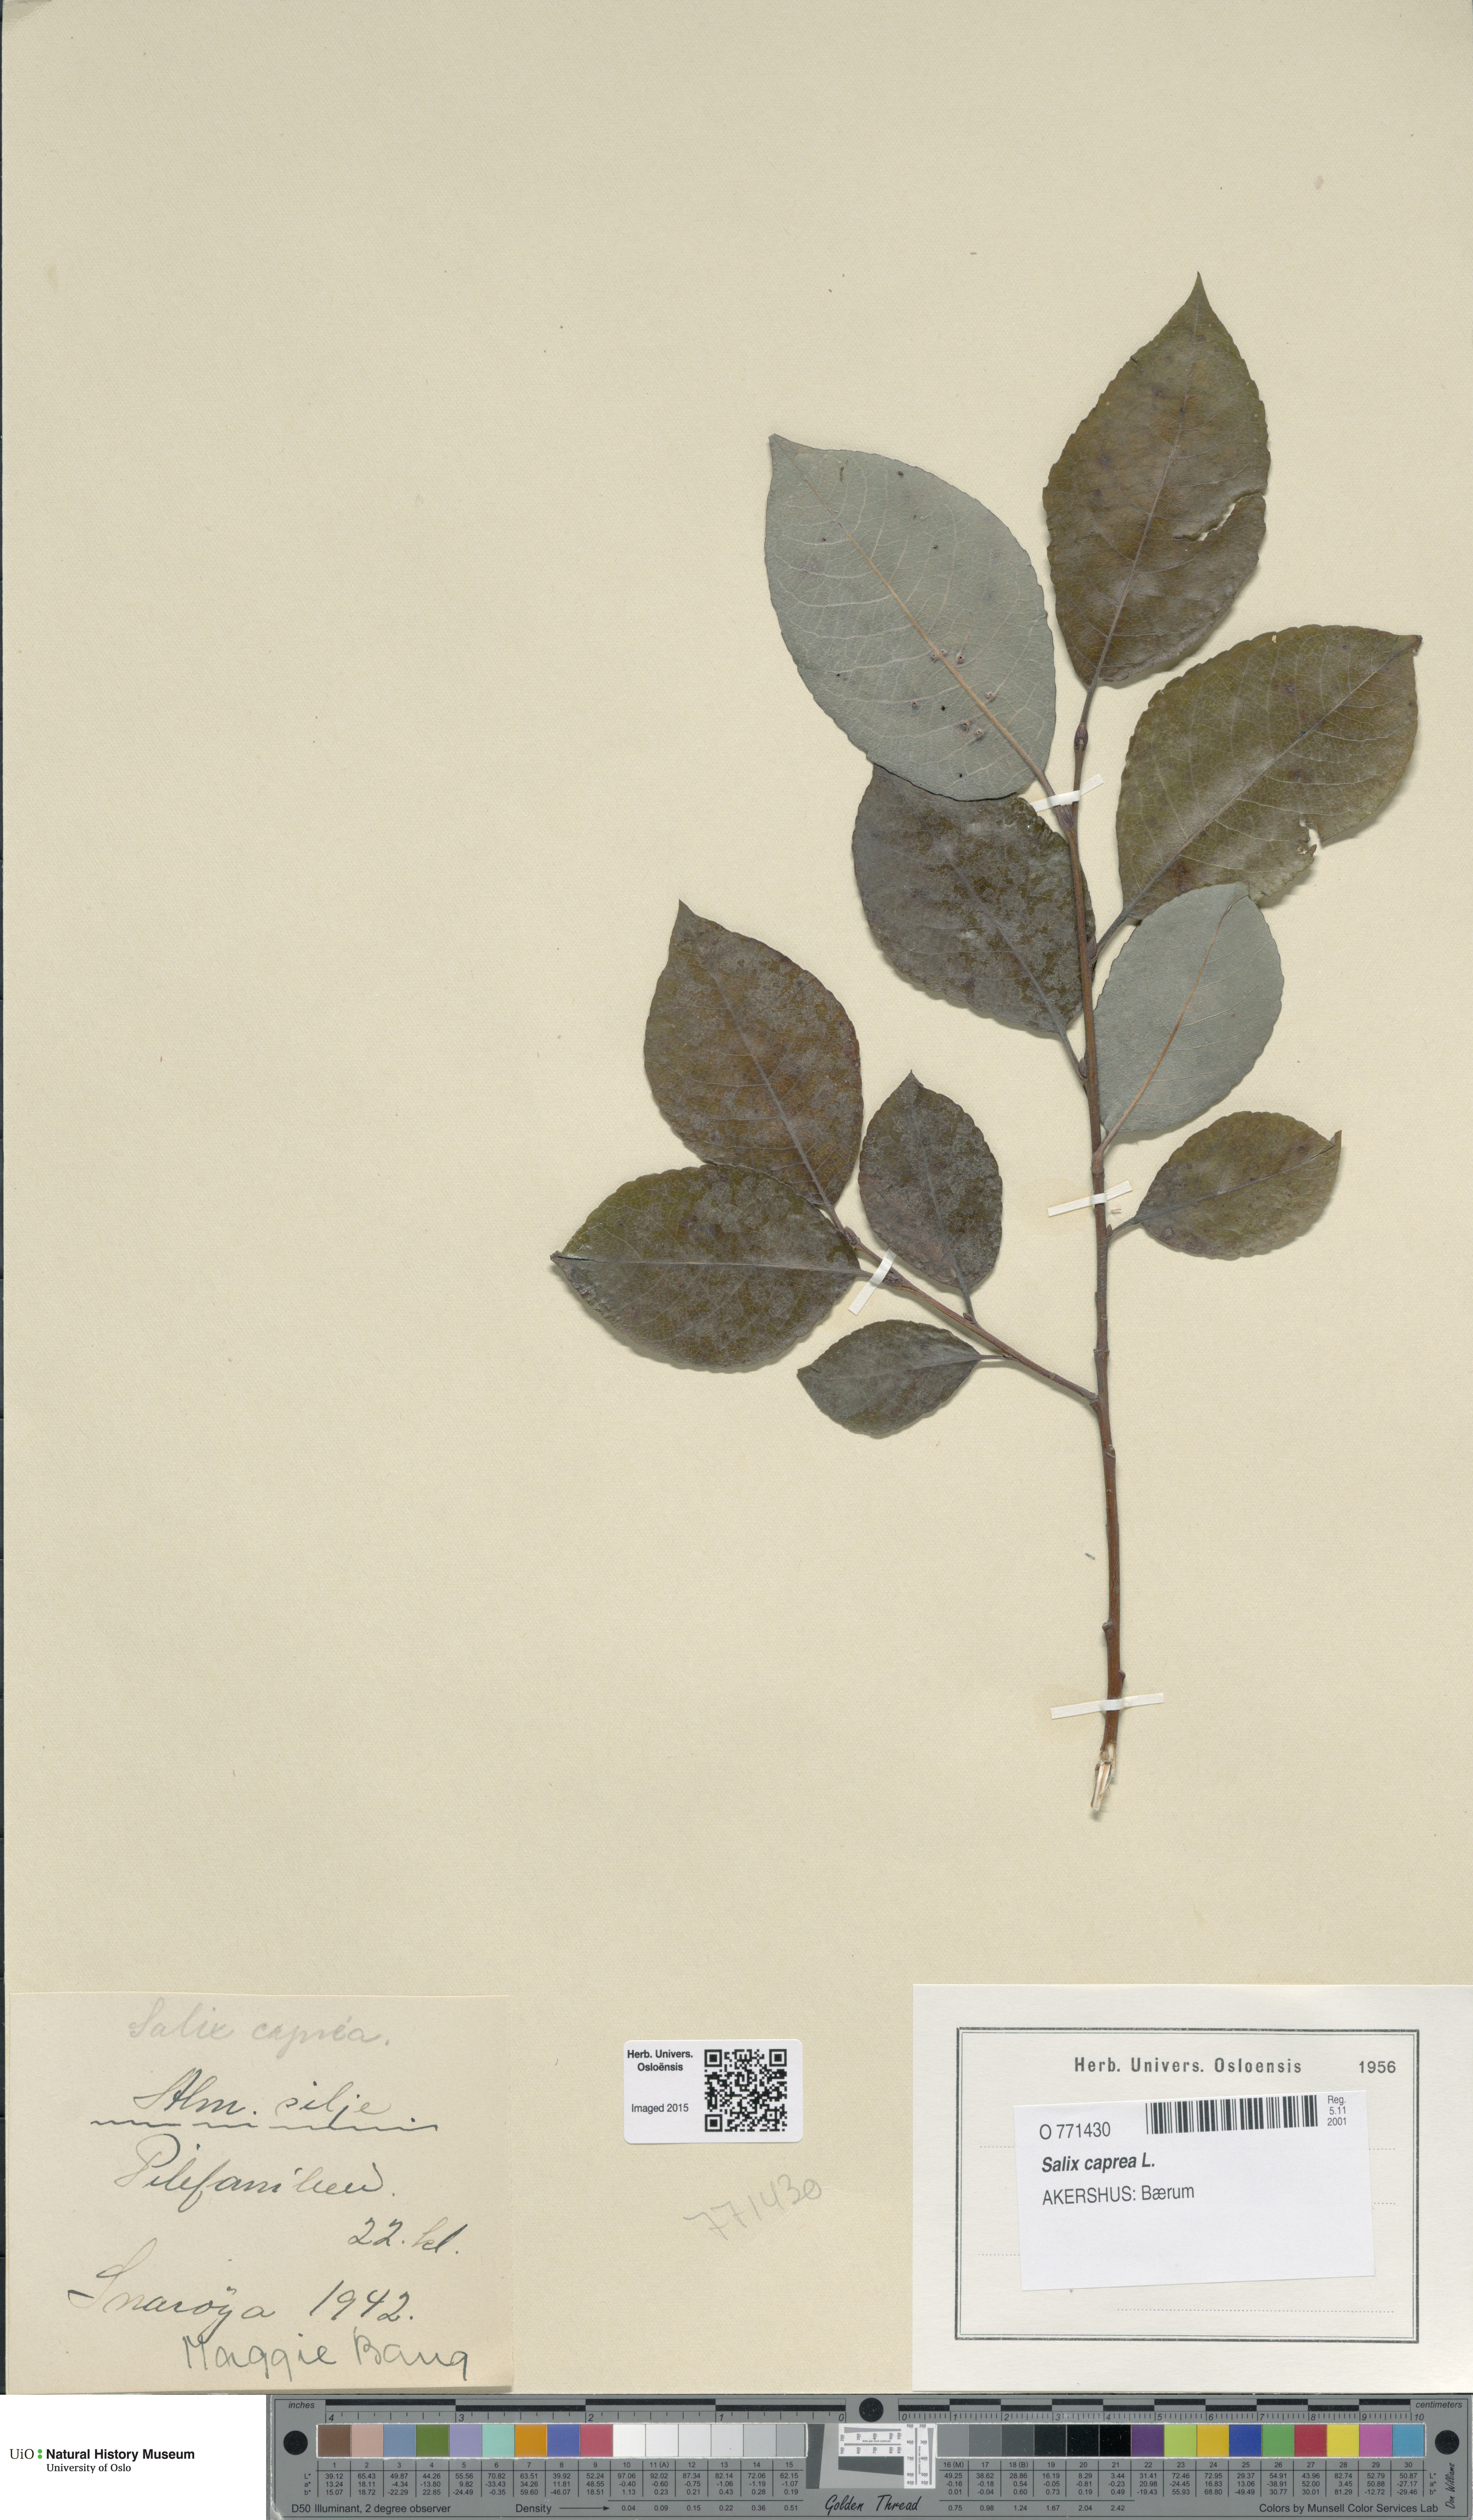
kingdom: Plantae
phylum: Tracheophyta
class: Magnoliopsida
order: Malpighiales
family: Salicaceae
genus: Salix
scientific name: Salix caprea
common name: Goat willow
